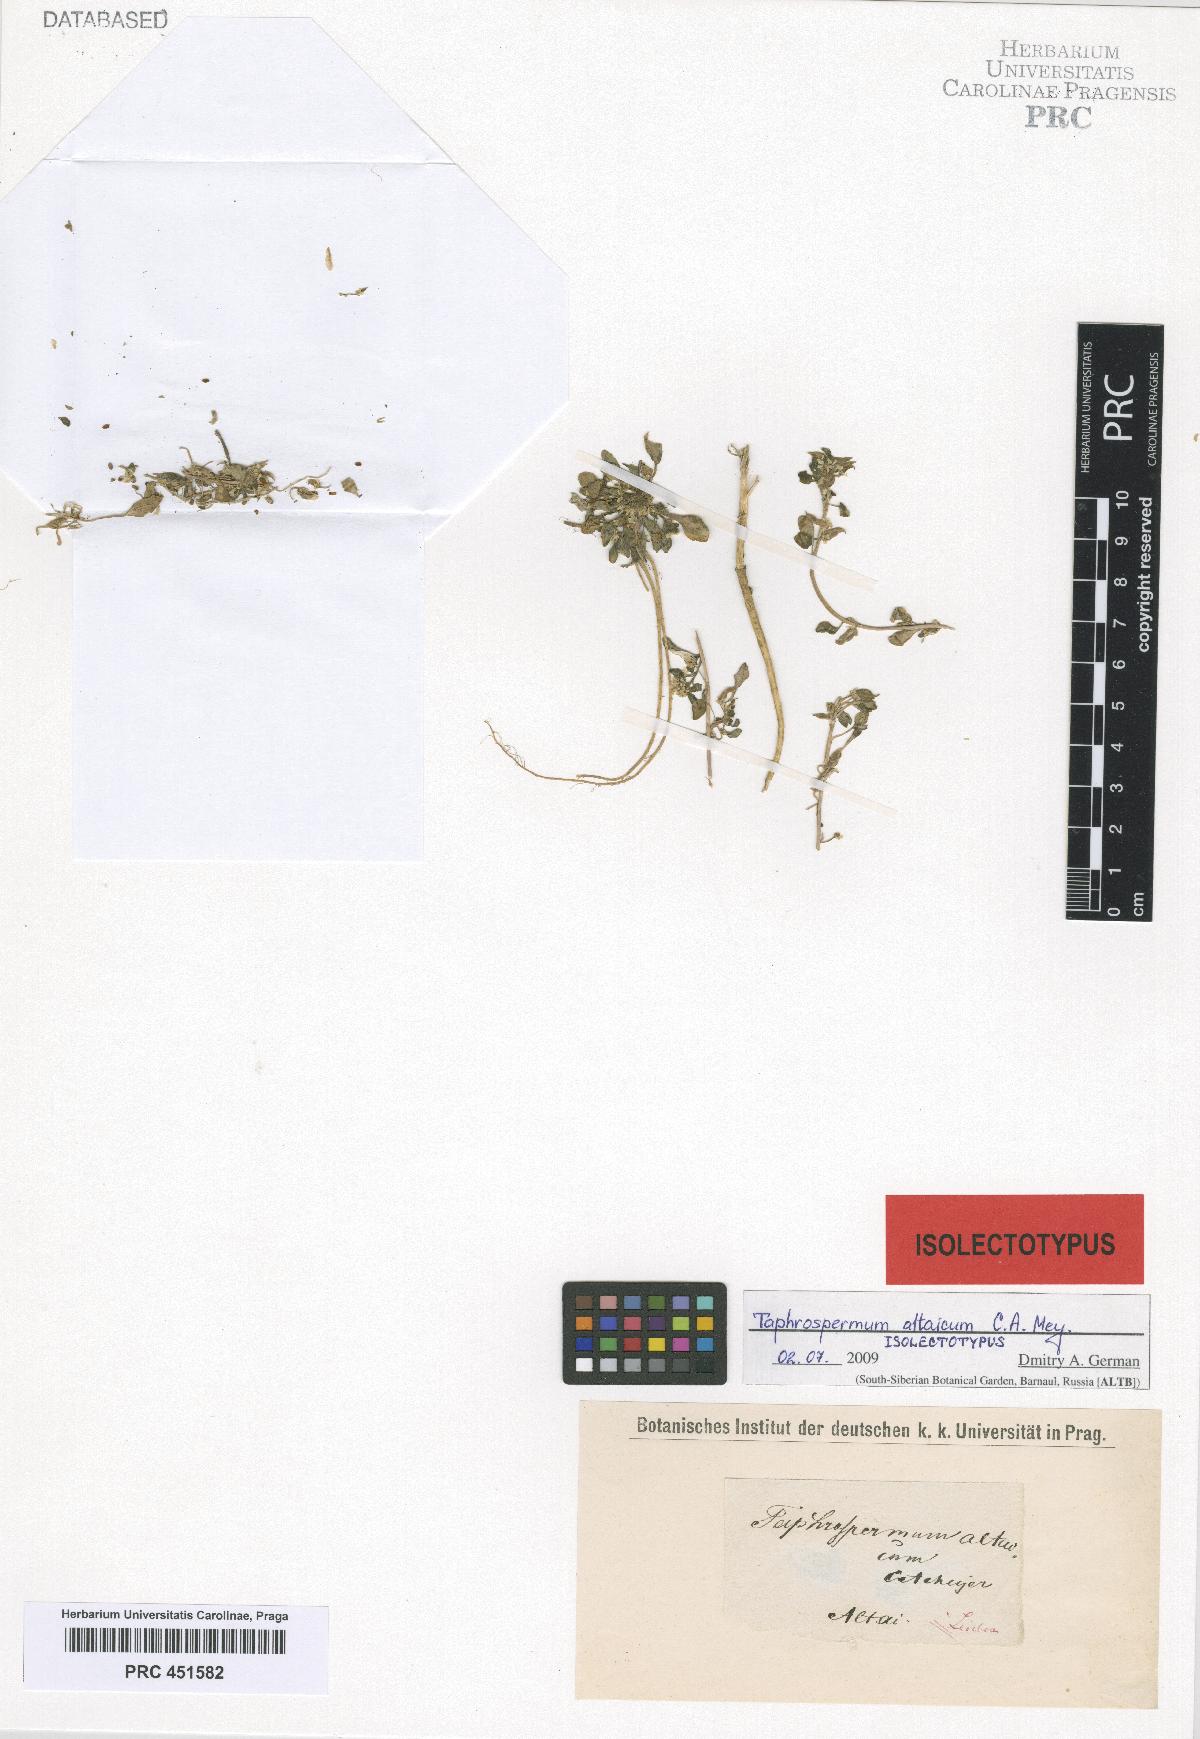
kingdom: Plantae
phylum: Tracheophyta
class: Magnoliopsida
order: Brassicales
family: Brassicaceae
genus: Eutrema
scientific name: Eutrema altaicum
